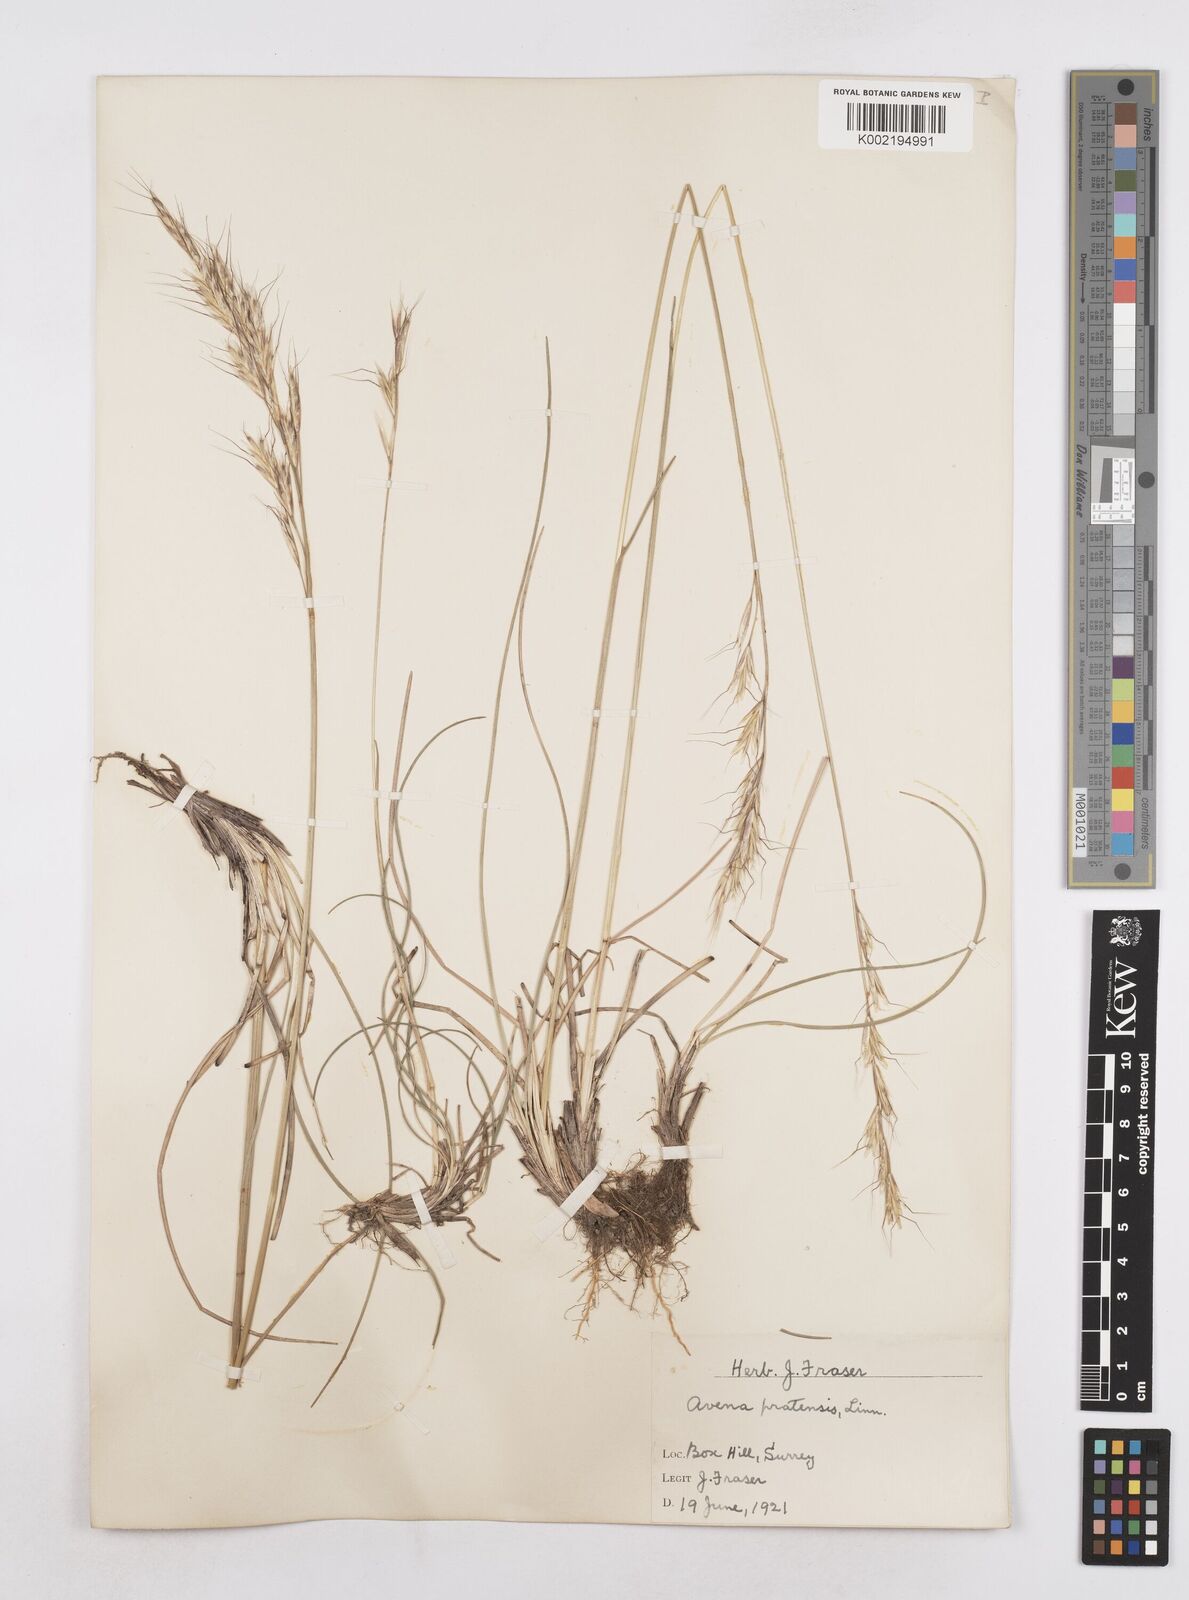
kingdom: Plantae
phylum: Tracheophyta
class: Liliopsida
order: Poales
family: Poaceae
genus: Helictochloa
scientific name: Helictochloa pratensis
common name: Meadow oat grass
